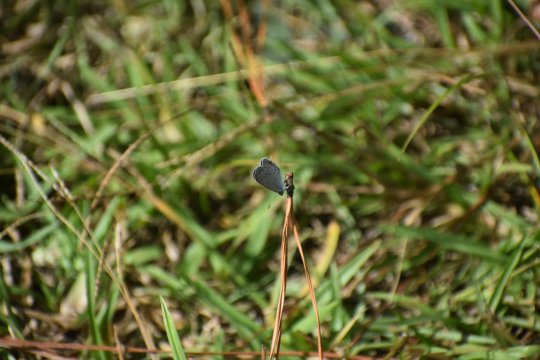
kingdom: Animalia
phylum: Arthropoda
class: Insecta
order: Lepidoptera
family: Lycaenidae
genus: Elkalyce
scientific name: Elkalyce comyntas
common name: Eastern Tailed-Blue
